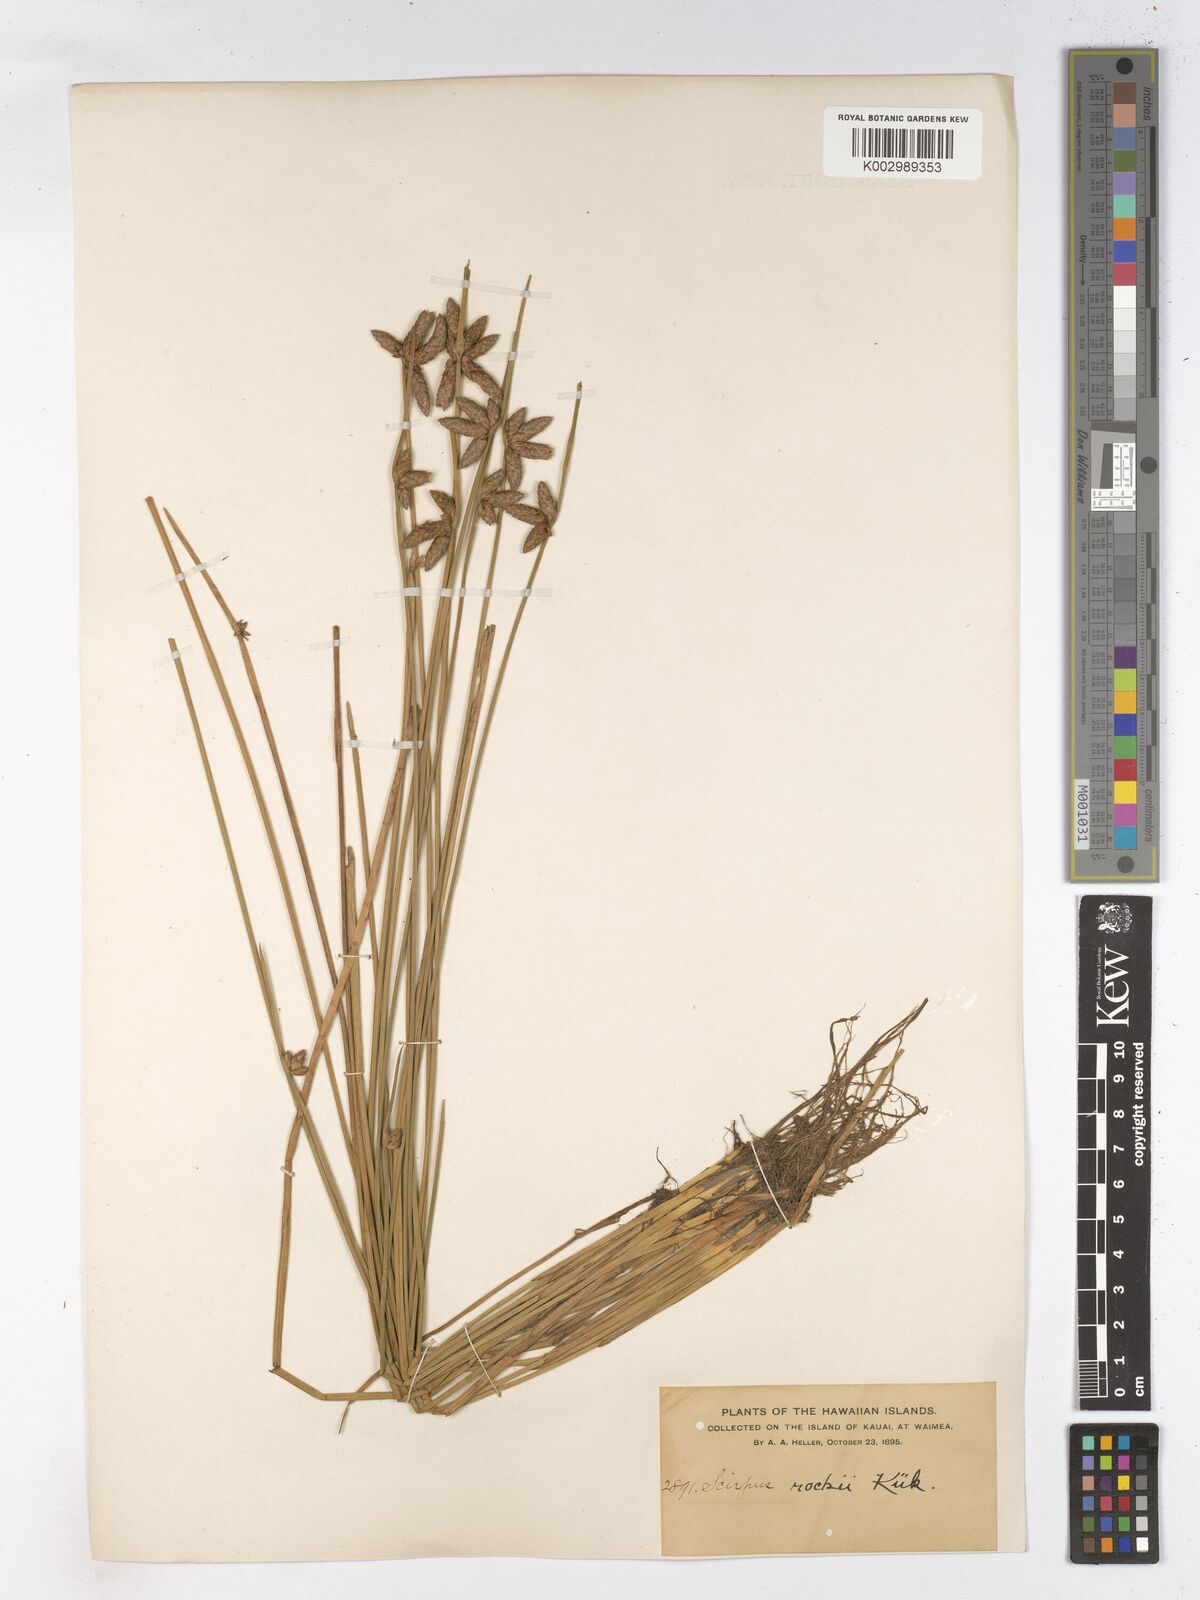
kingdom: Plantae
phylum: Tracheophyta
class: Liliopsida
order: Poales
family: Cyperaceae
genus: Schoenoplectiella
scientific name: Schoenoplectiella juncoides
